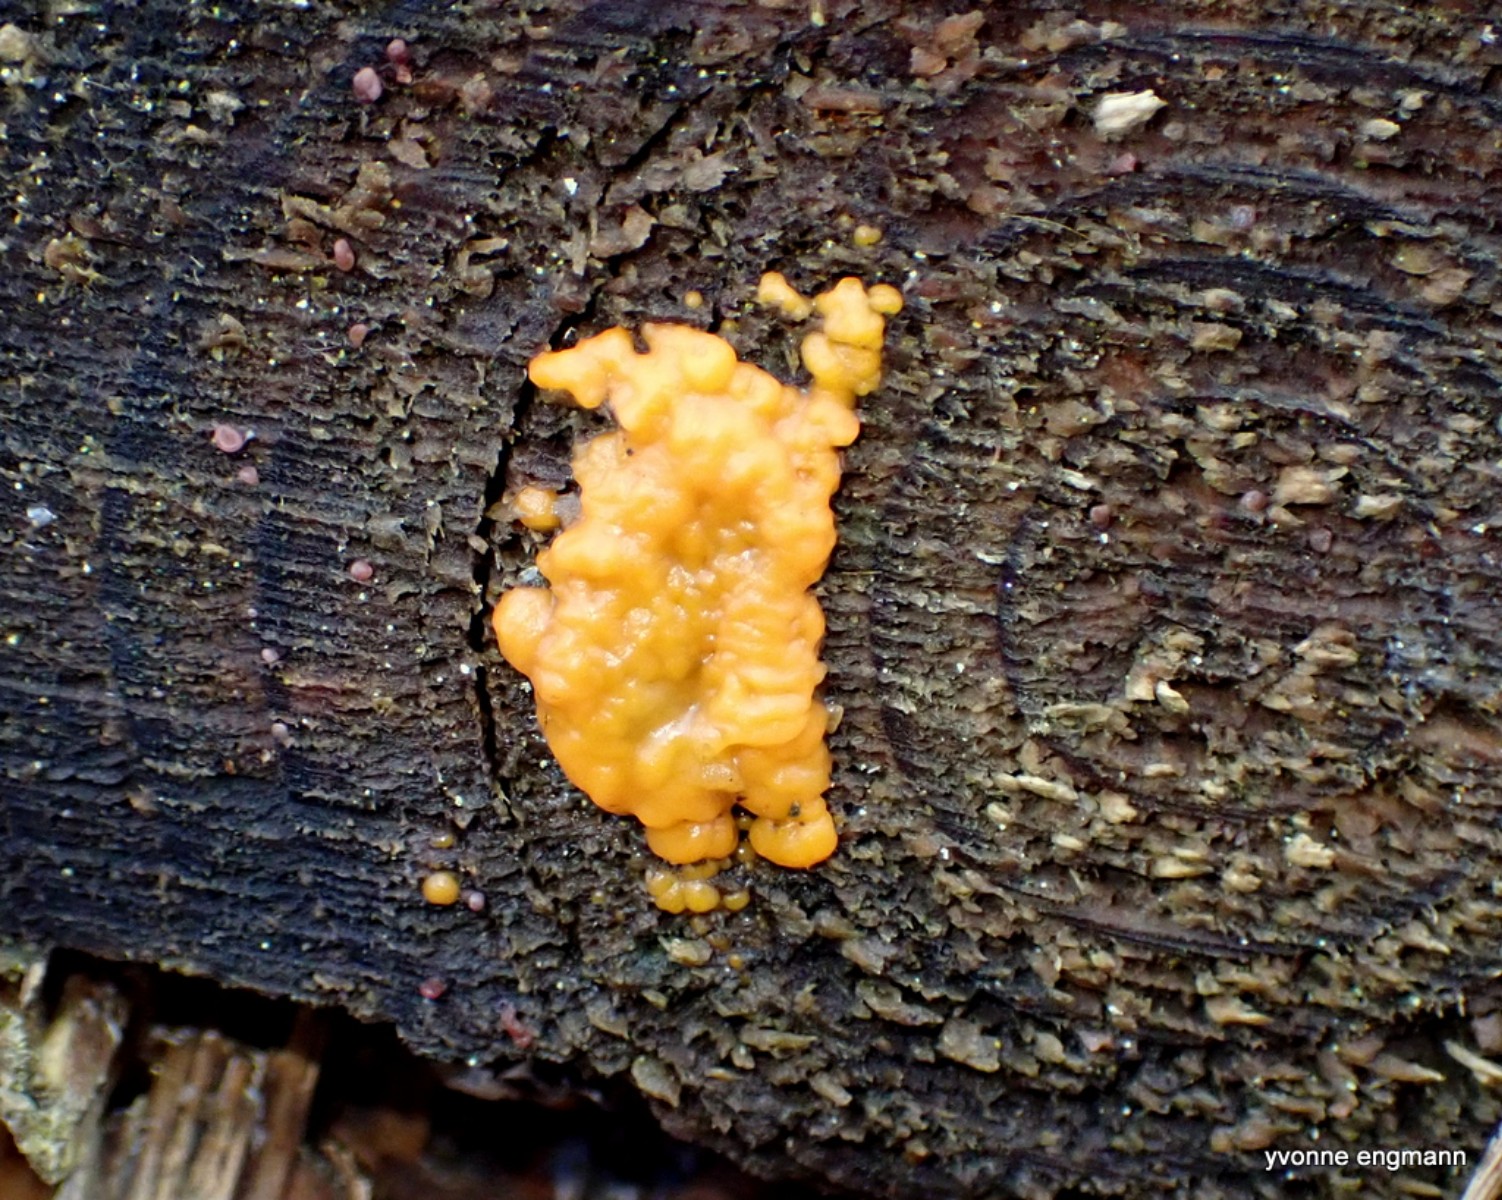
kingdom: Fungi
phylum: Basidiomycota
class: Dacrymycetes
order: Dacrymycetales
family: Dacrymycetaceae
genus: Dacrymyces
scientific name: Dacrymyces stillatus
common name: almindelig tåresvamp
